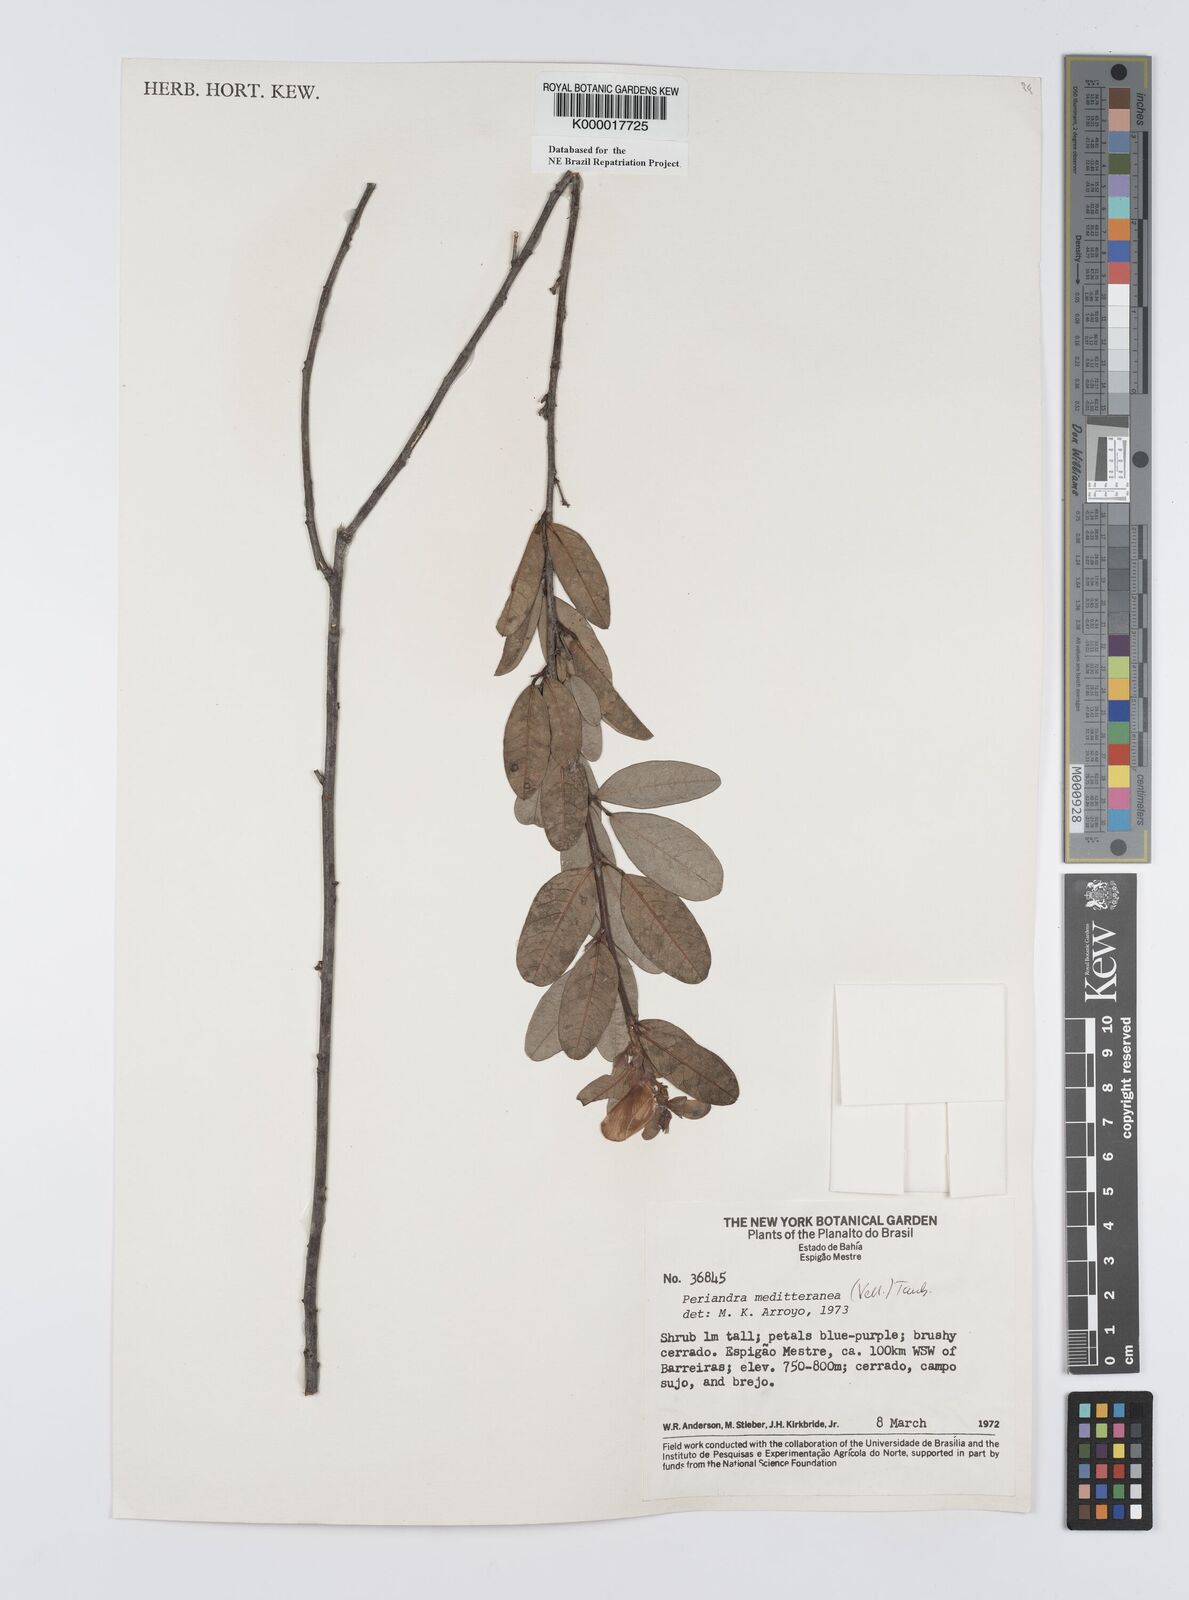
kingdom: Plantae
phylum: Tracheophyta
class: Magnoliopsida
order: Fabales
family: Fabaceae
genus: Periandra
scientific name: Periandra mediterranea
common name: Brazilian licorice
